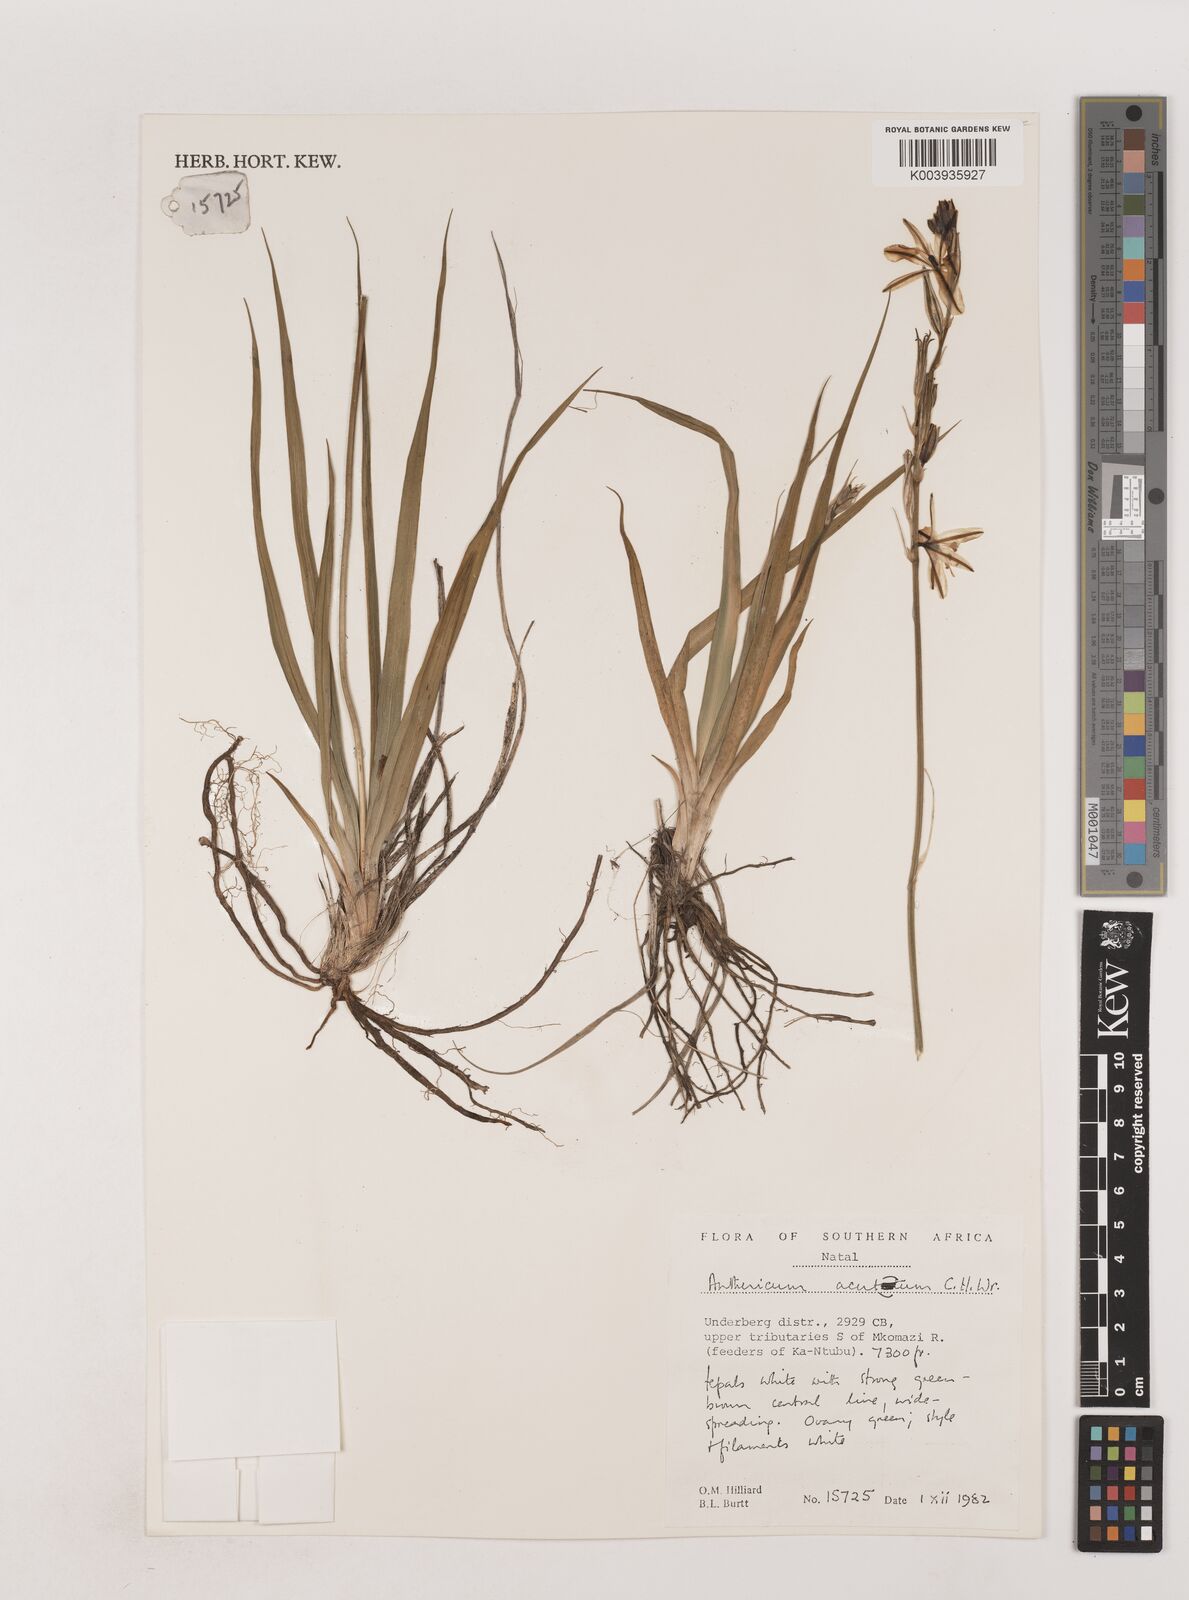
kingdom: Plantae
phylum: Tracheophyta
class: Liliopsida
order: Asparagales
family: Asparagaceae
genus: Chlorophytum
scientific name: Chlorophytum acutum
